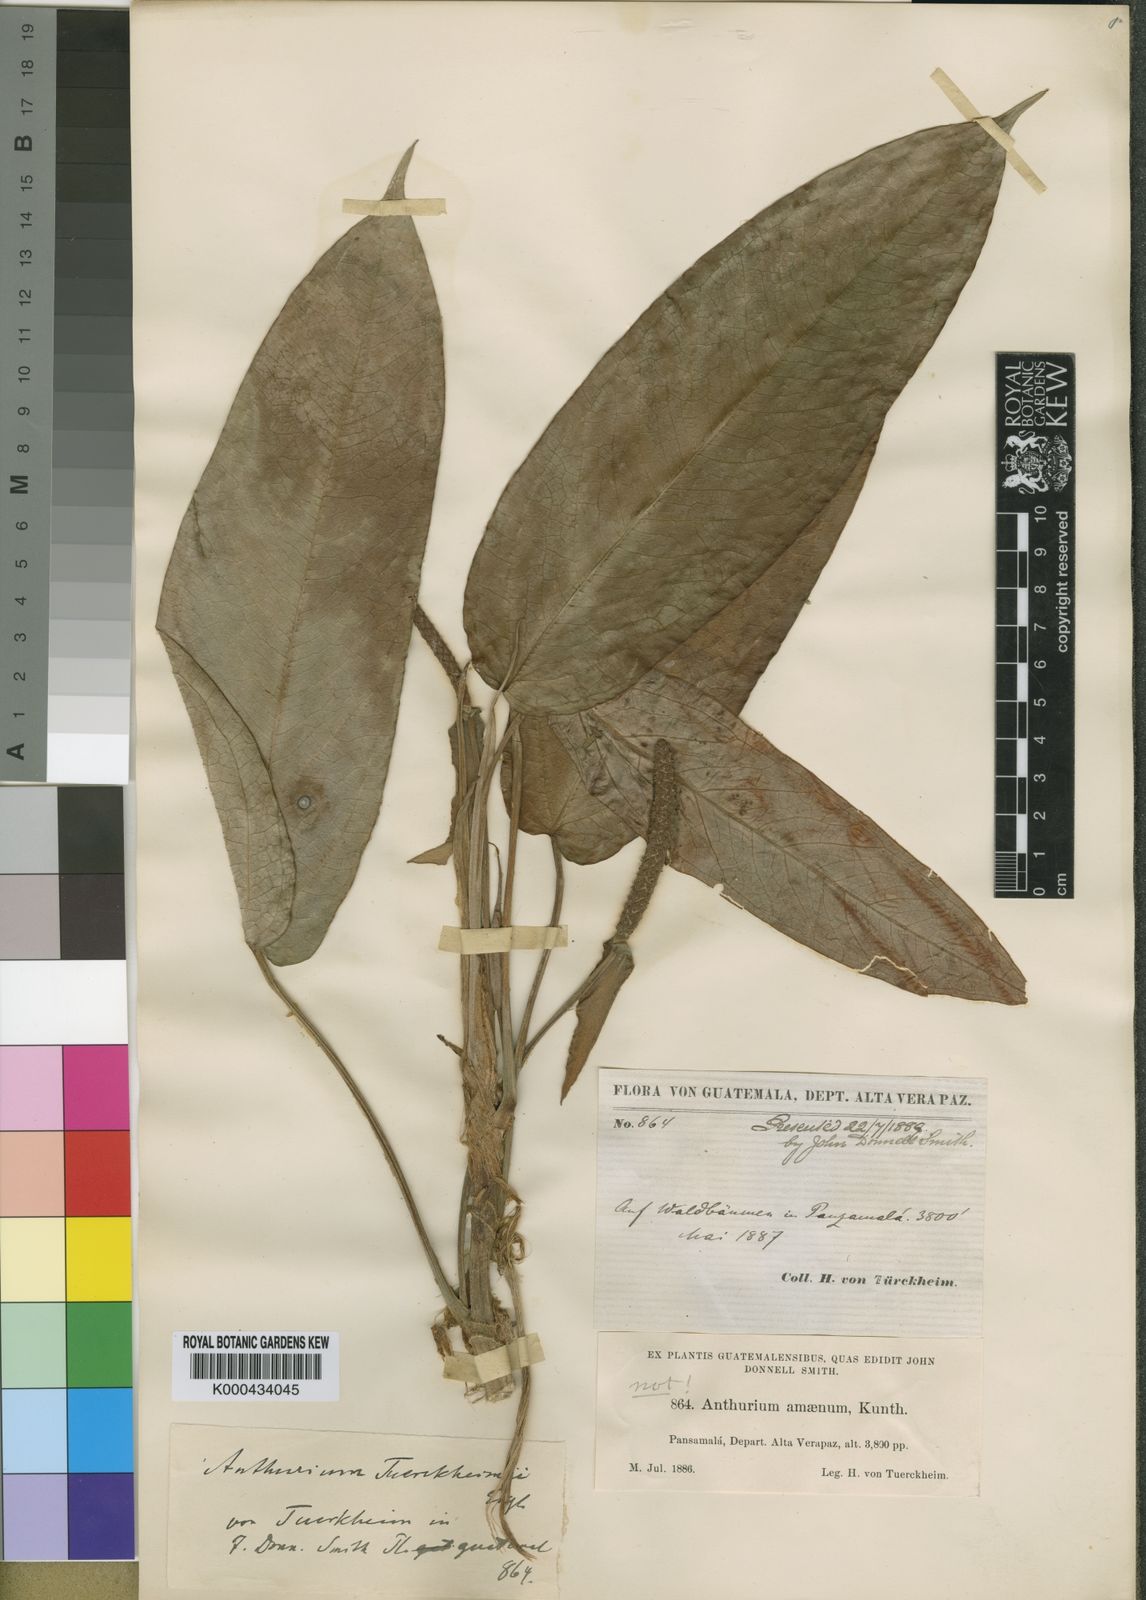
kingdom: Plantae
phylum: Tracheophyta
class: Liliopsida
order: Alismatales
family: Araceae
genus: Anthurium
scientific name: Anthurium microspadix
